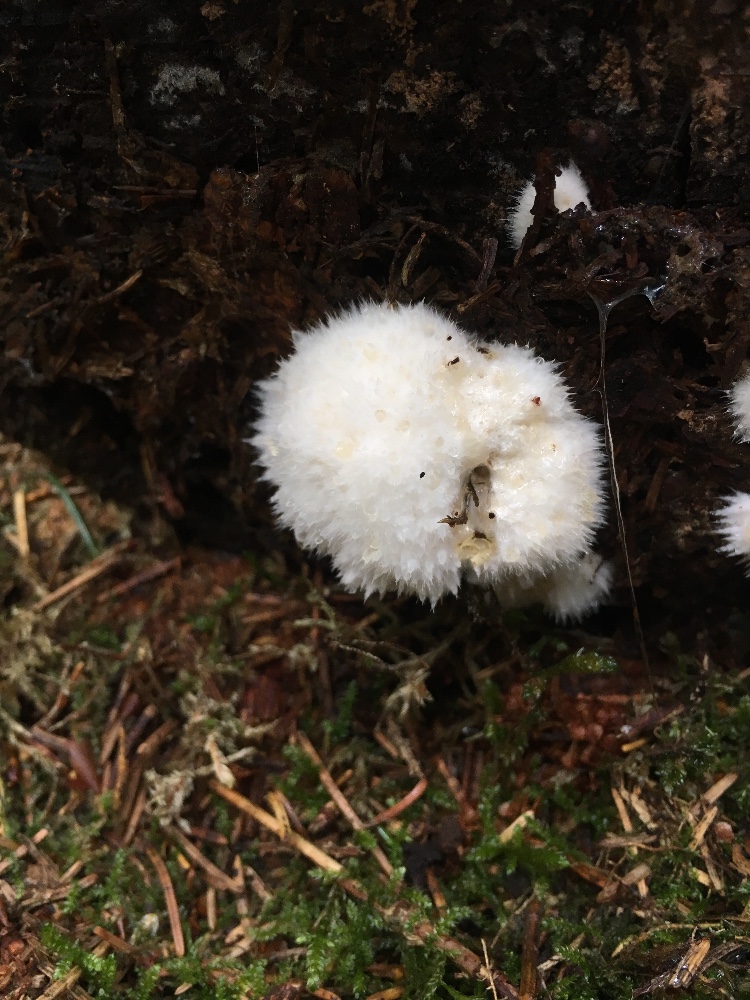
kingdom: Fungi
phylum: Basidiomycota
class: Agaricomycetes
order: Polyporales
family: Dacryobolaceae
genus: Postia
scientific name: Postia ptychogaster
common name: støvende kødporesvamp
